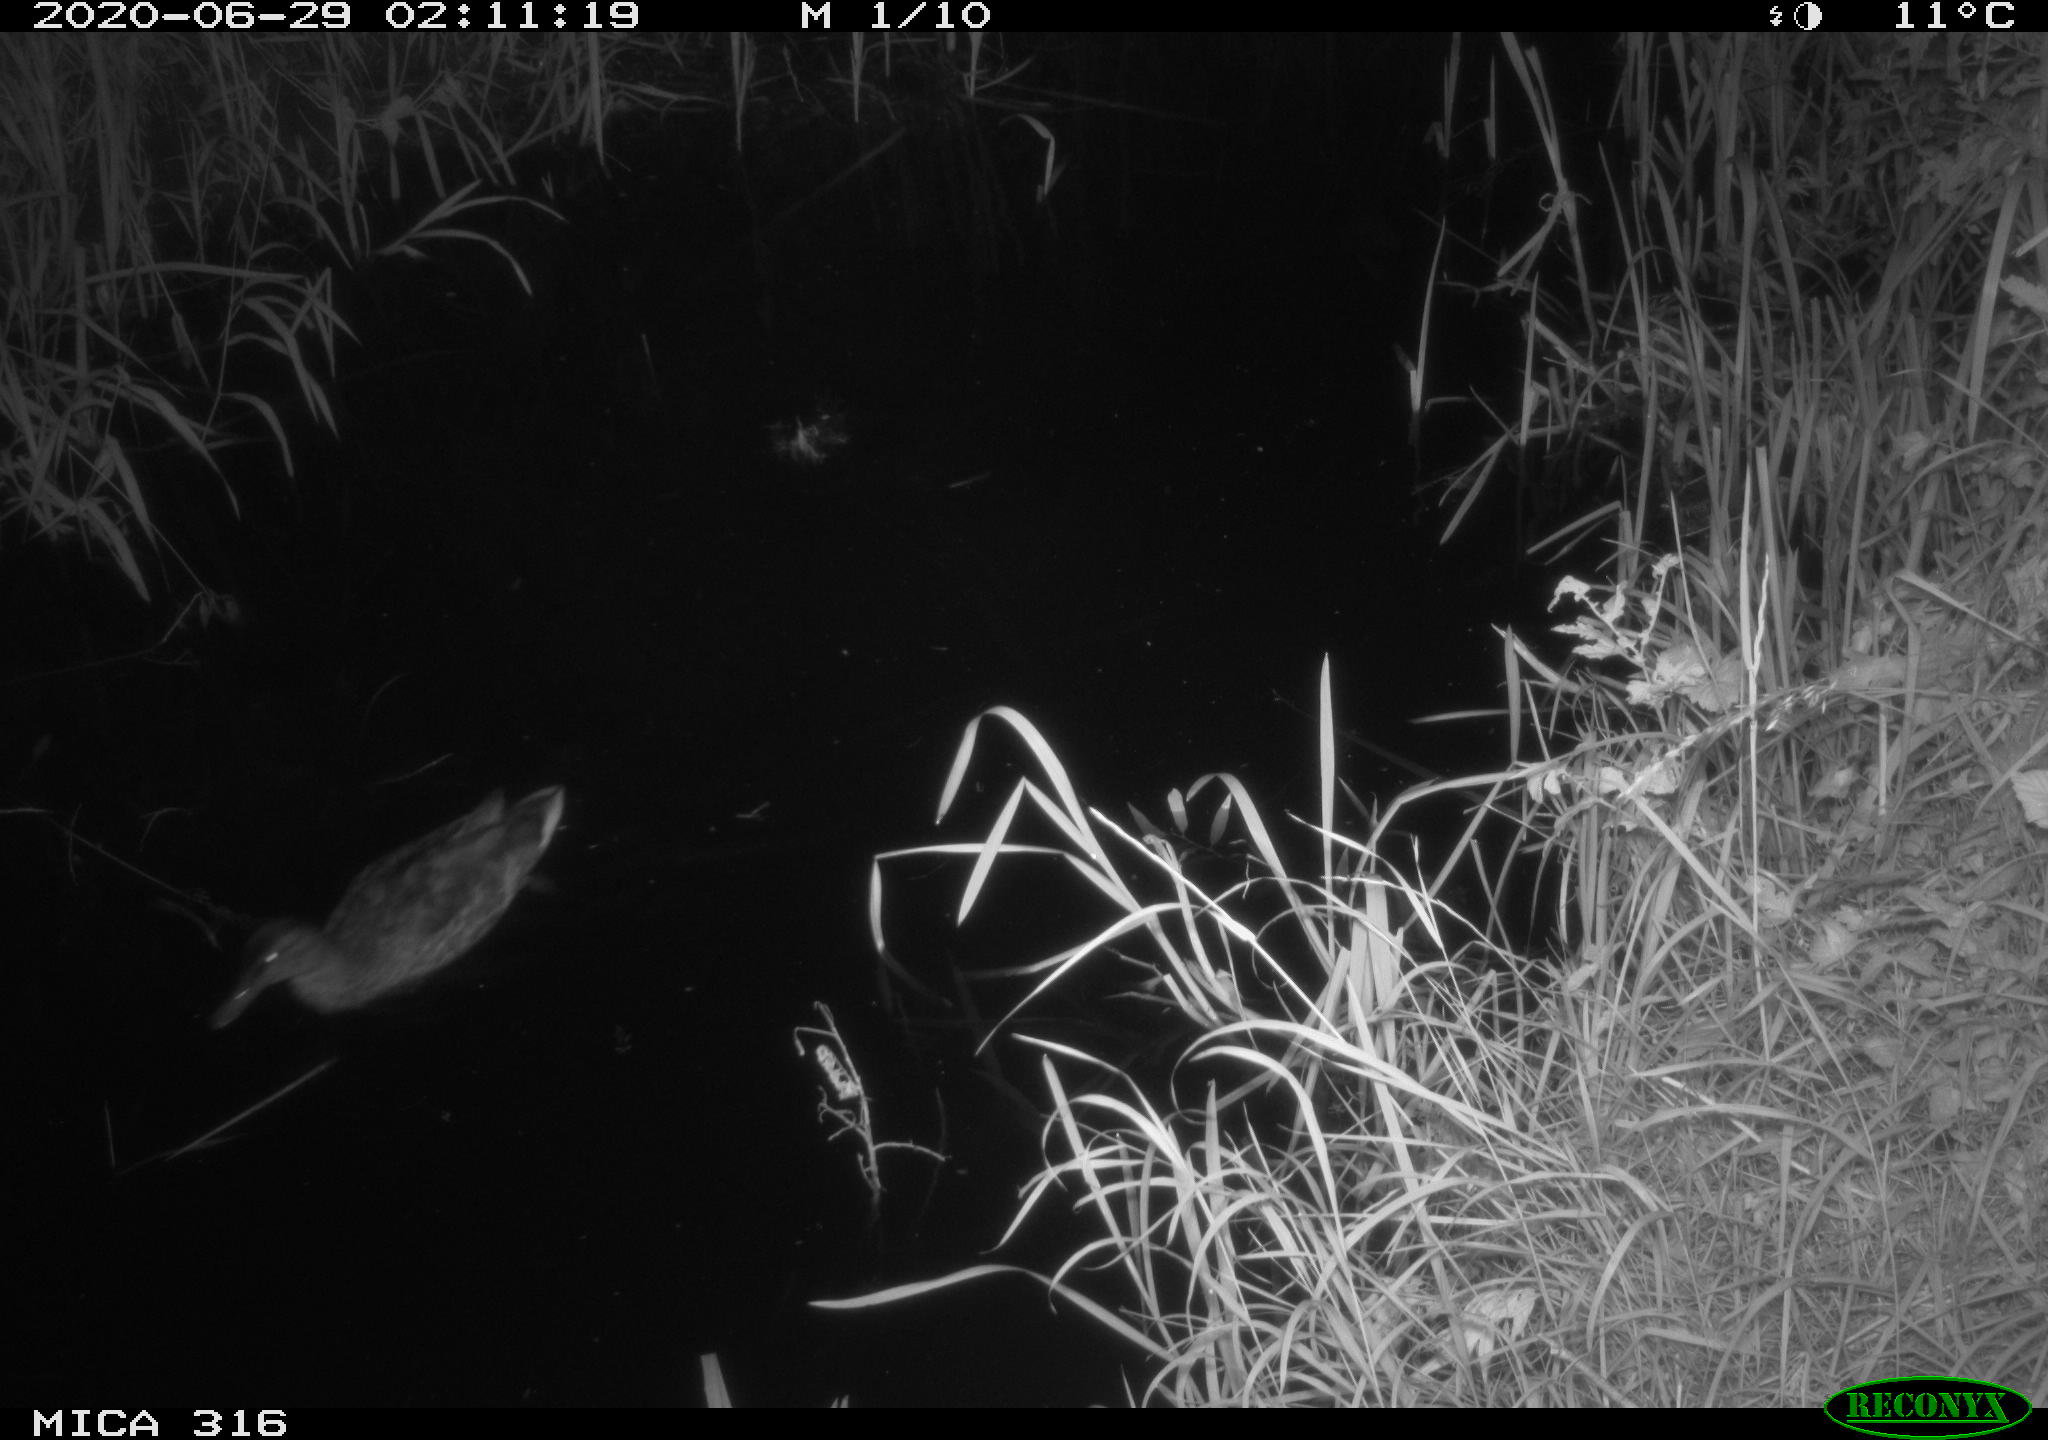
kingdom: Animalia
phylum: Chordata
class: Aves
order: Anseriformes
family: Anatidae
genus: Anas
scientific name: Anas platyrhynchos
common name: Mallard
